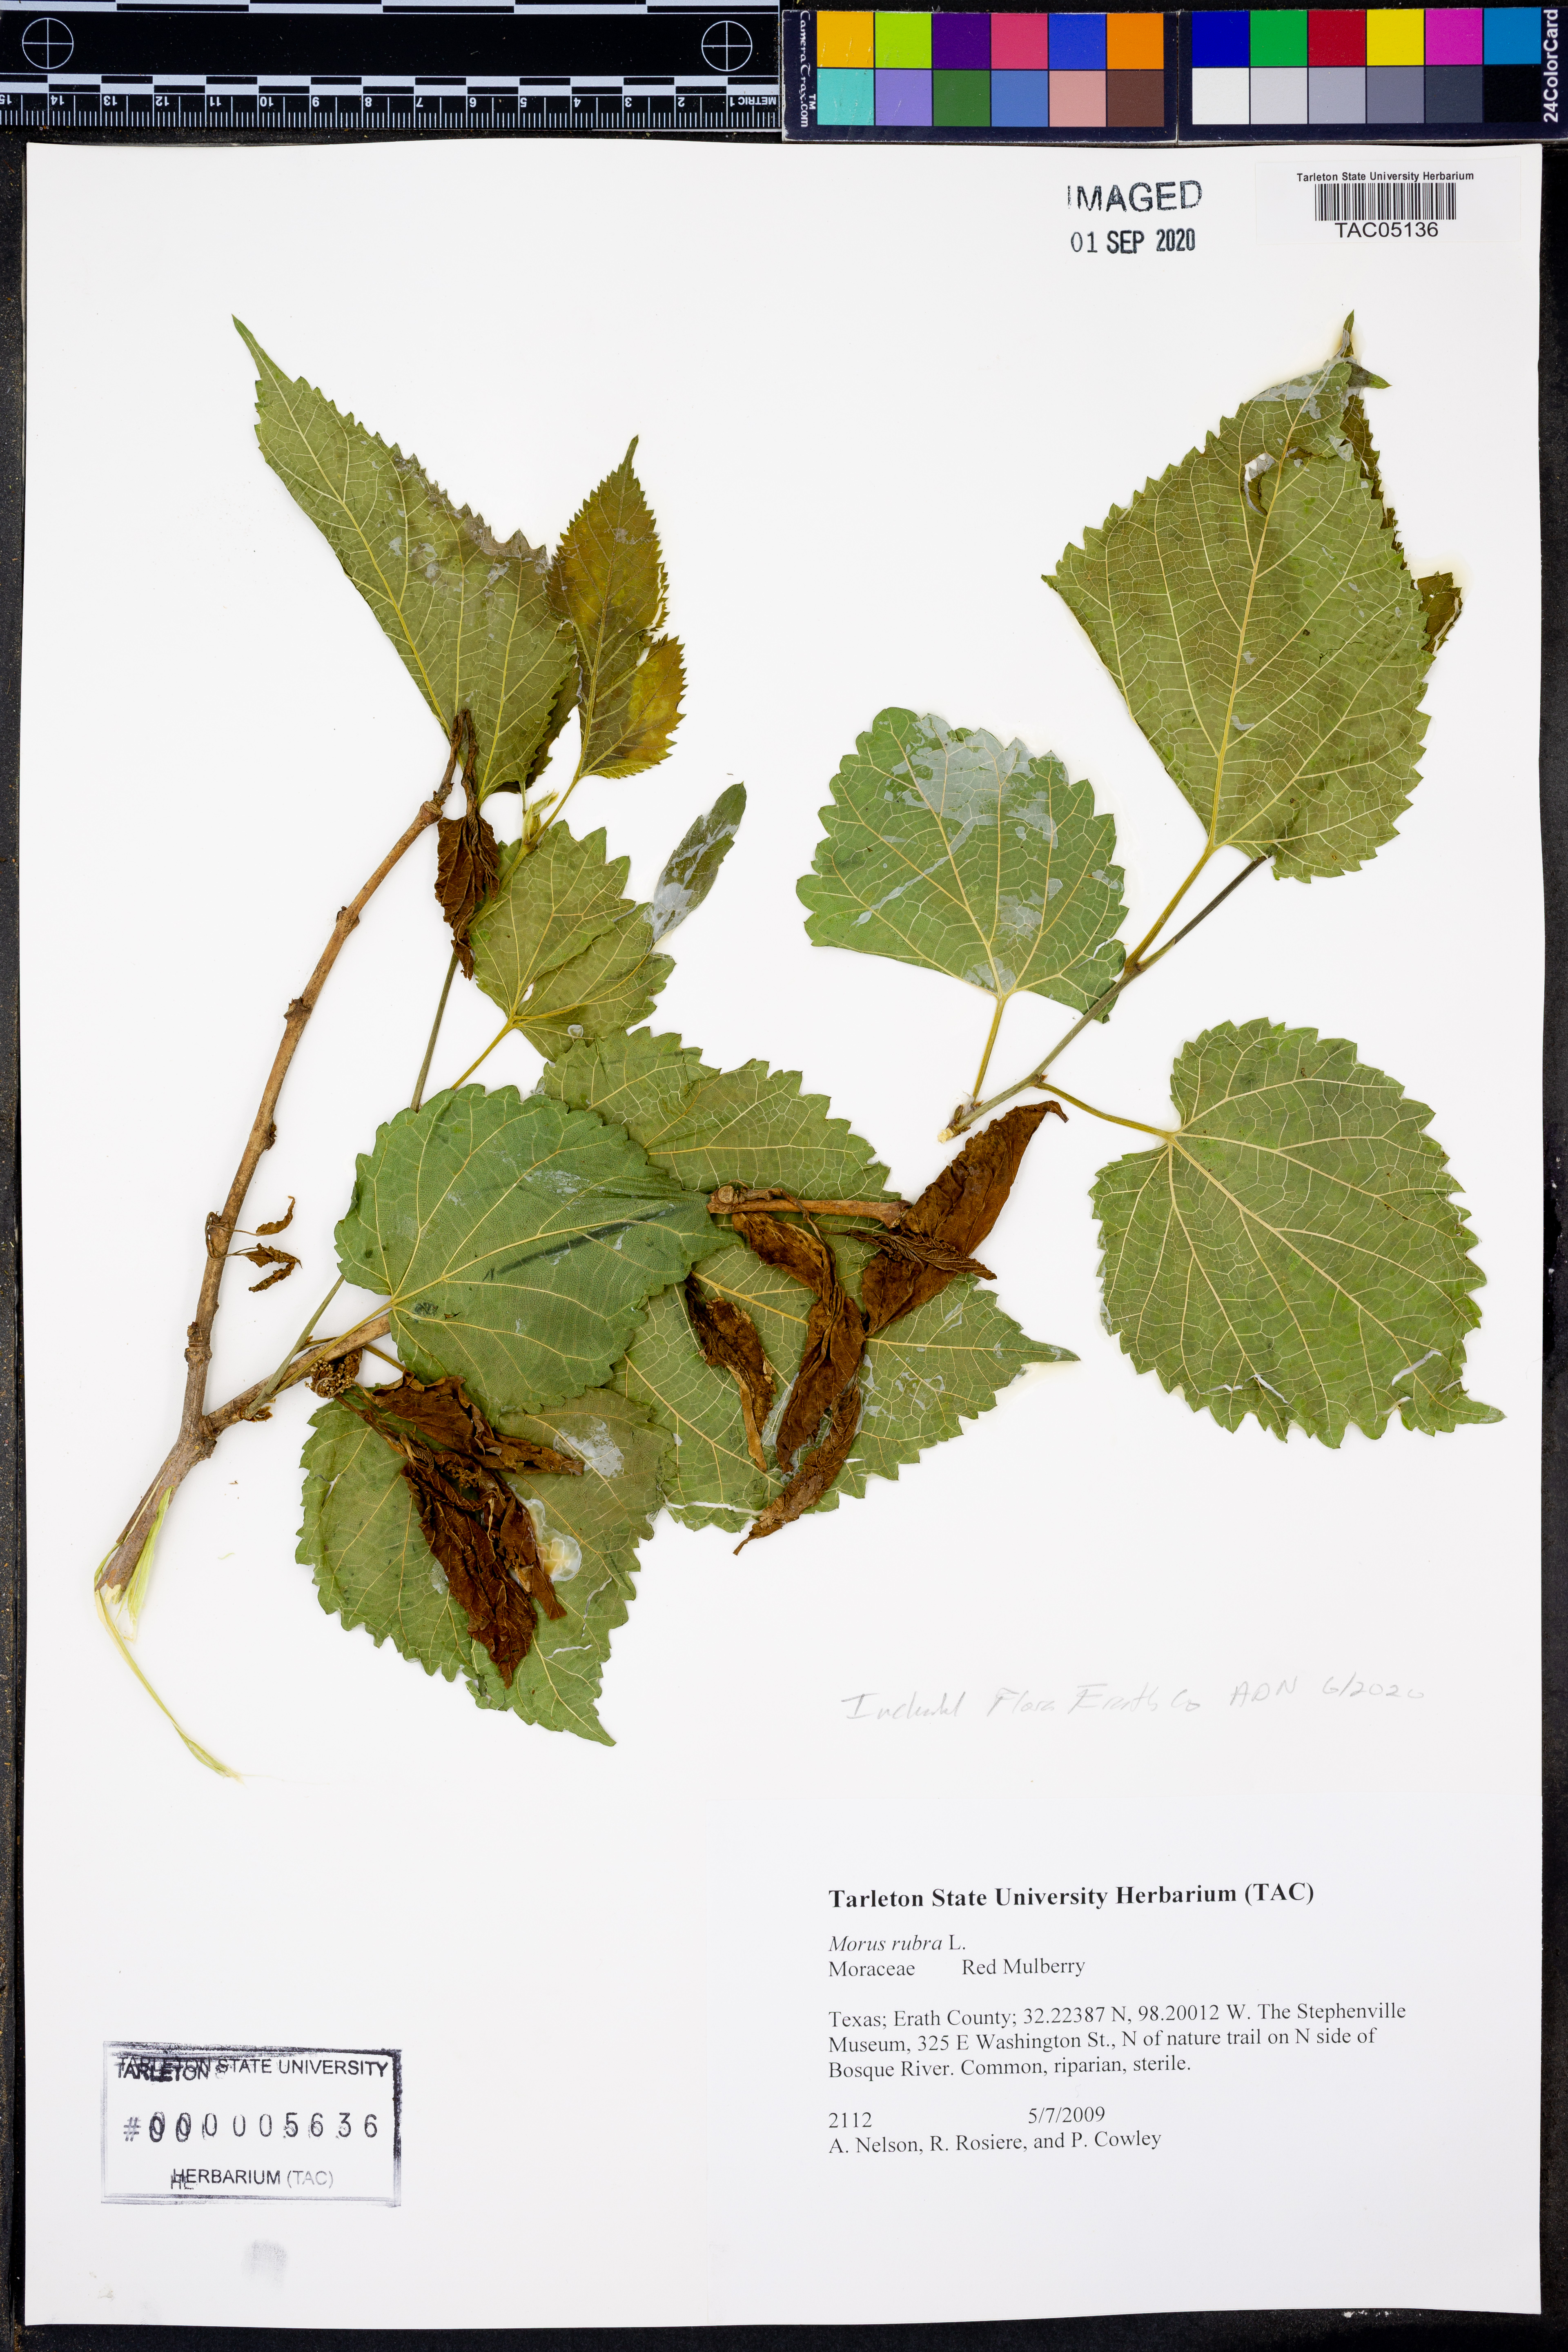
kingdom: Plantae
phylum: Tracheophyta
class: Magnoliopsida
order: Rosales
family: Moraceae
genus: Morus
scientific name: Morus rubra
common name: Red mulberry
